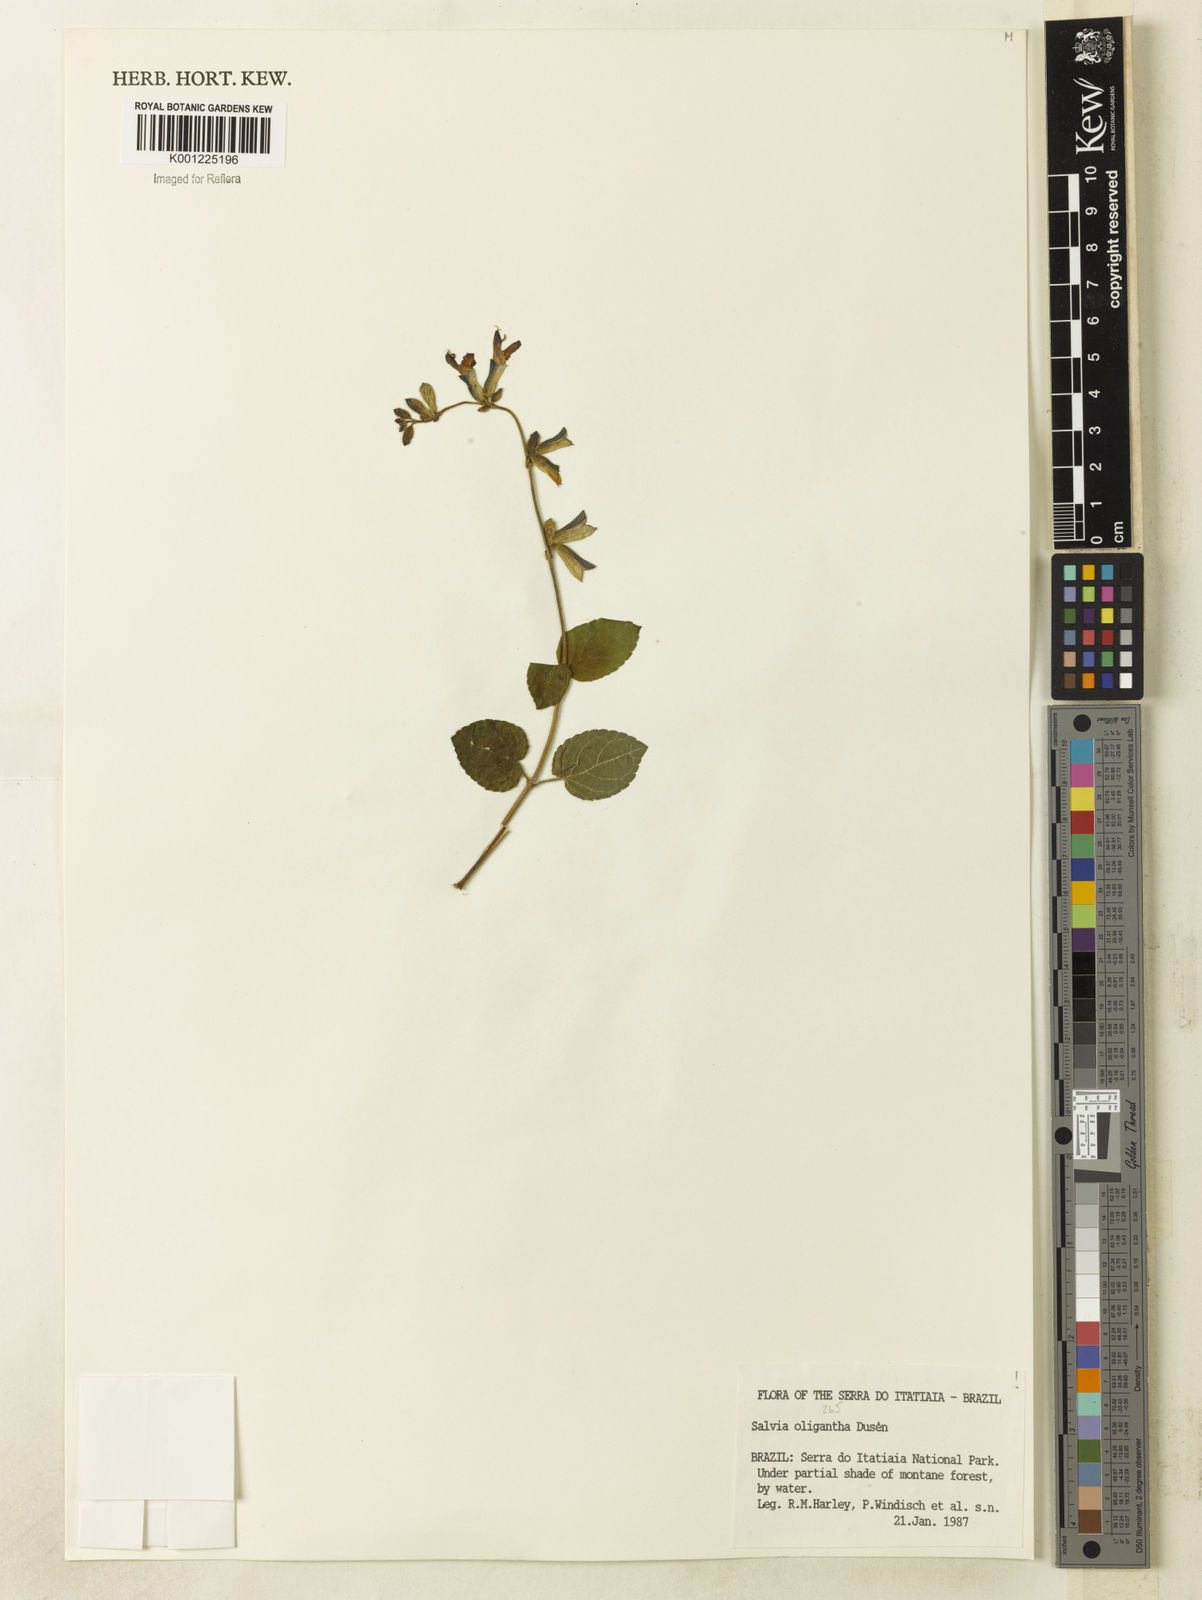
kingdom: Plantae
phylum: Tracheophyta
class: Magnoliopsida
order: Lamiales
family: Lamiaceae
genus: Salvia
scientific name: Salvia
